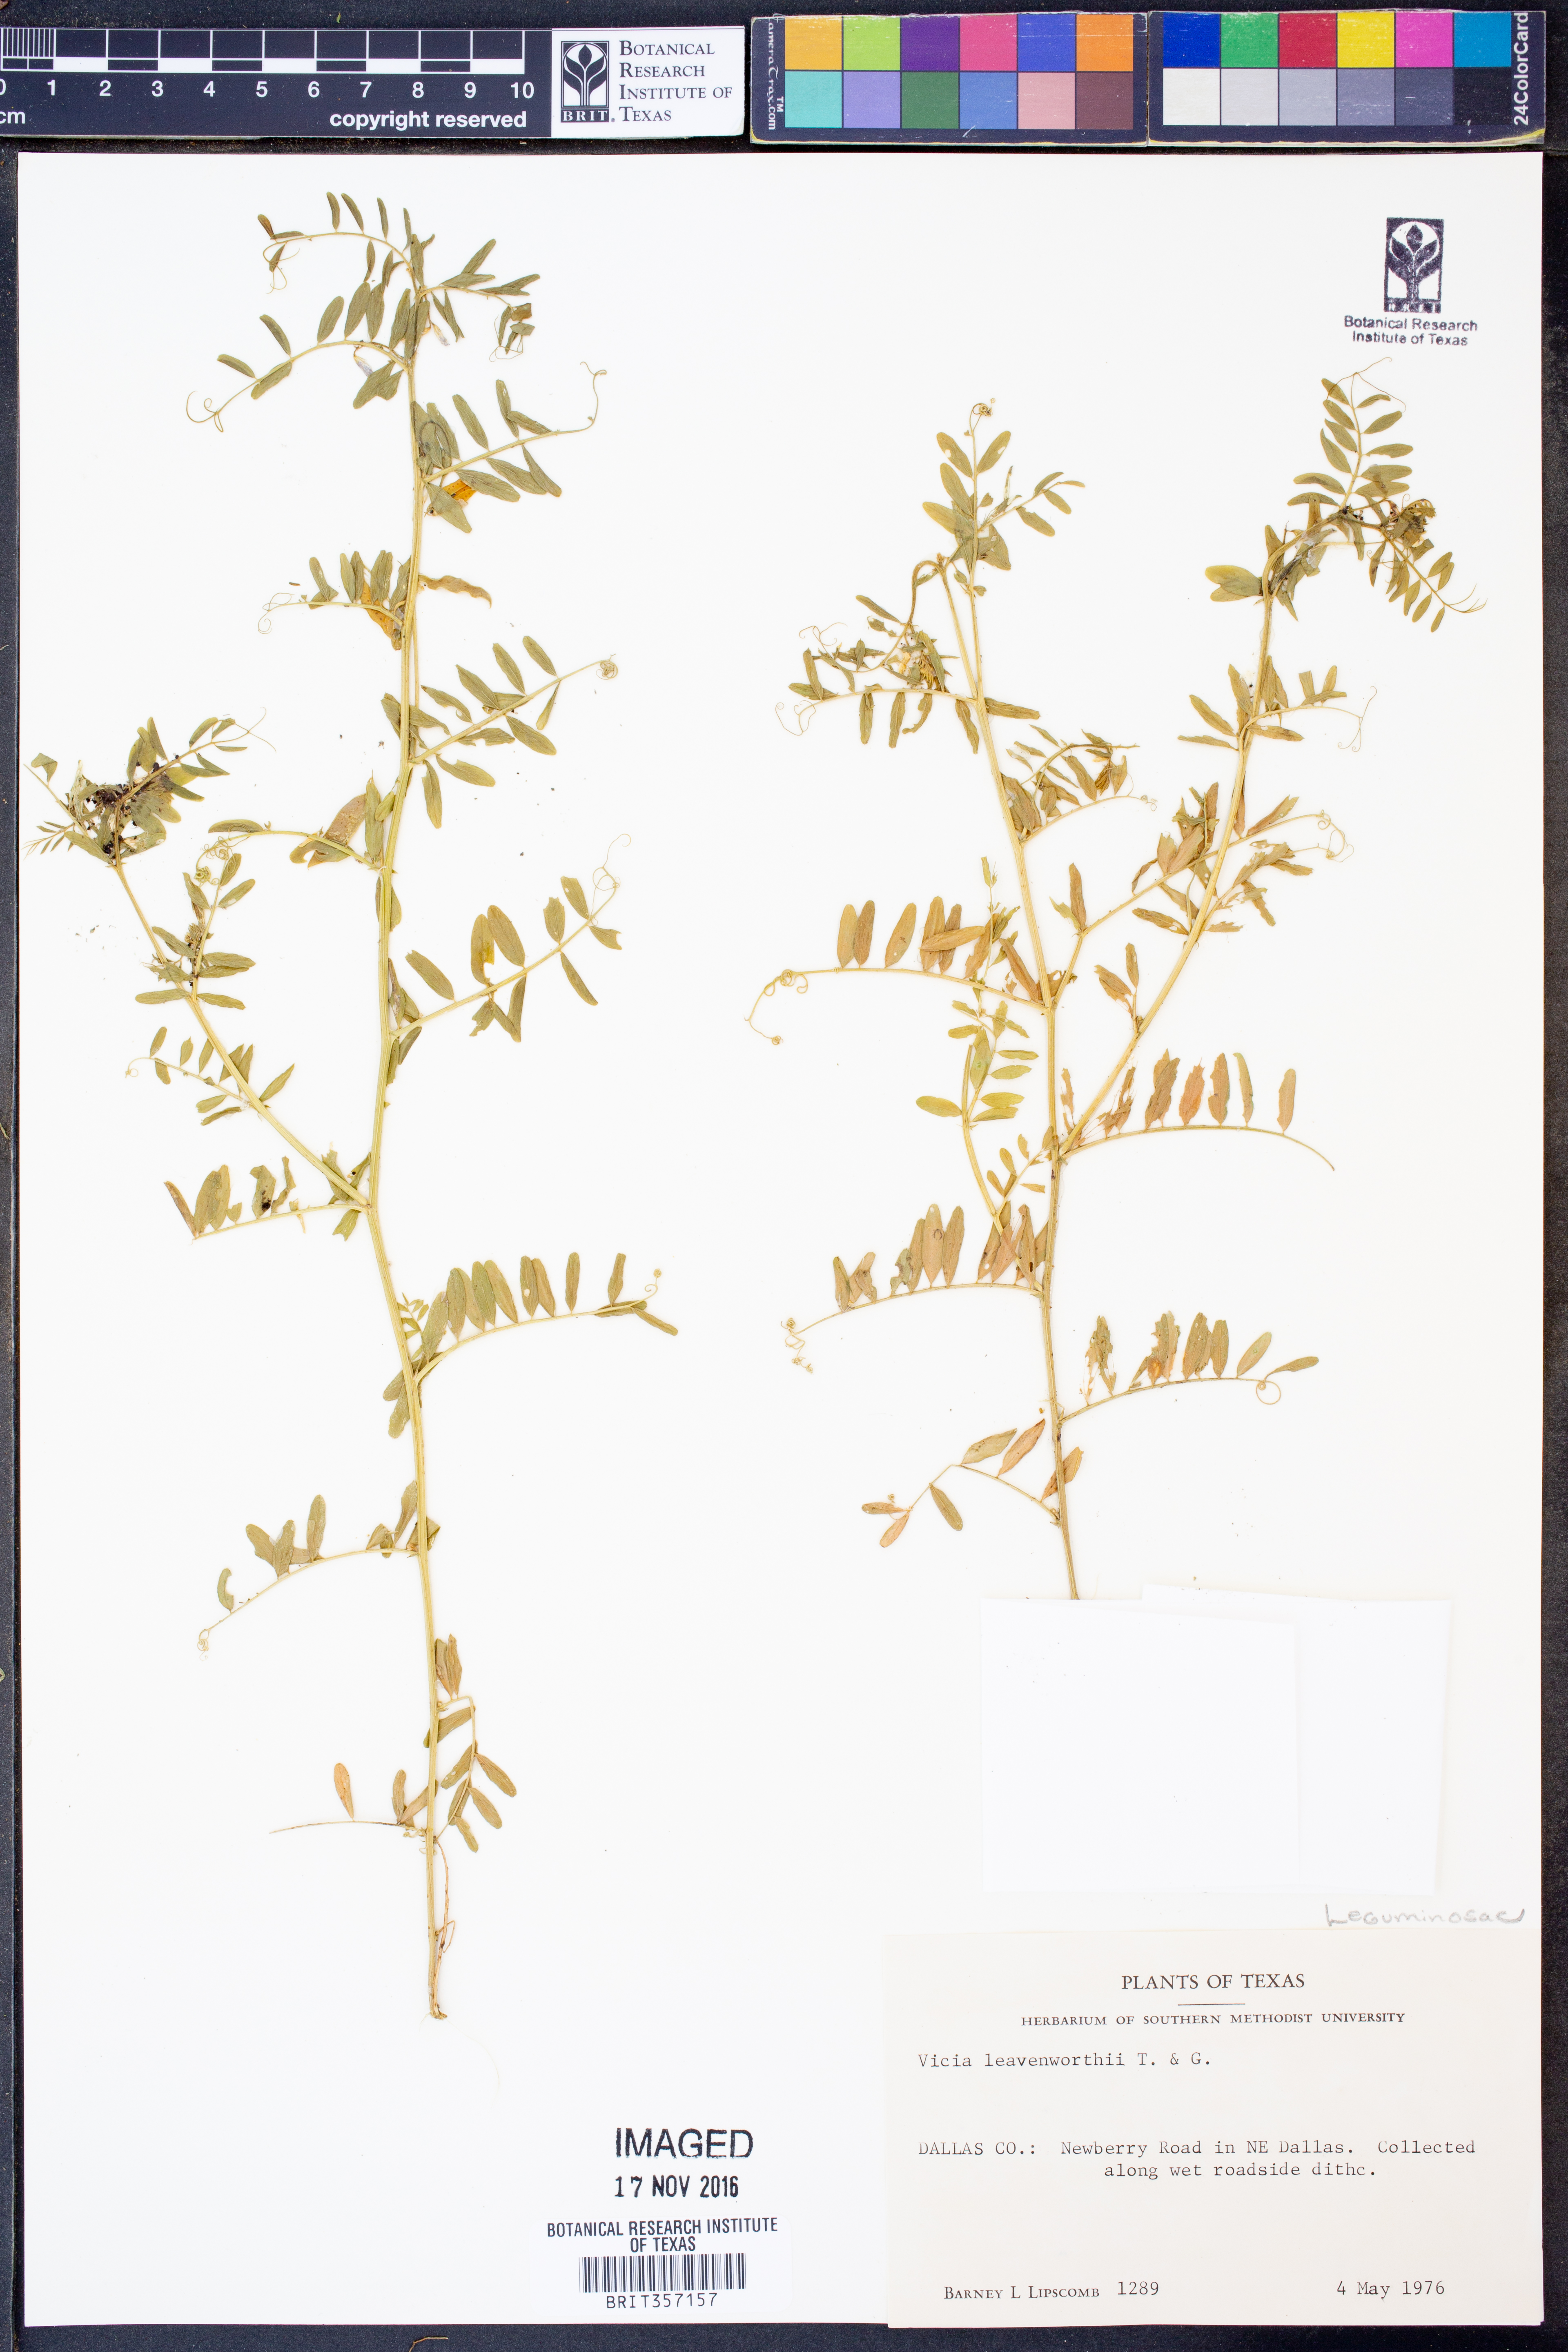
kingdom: Plantae
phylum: Tracheophyta
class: Magnoliopsida
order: Fabales
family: Fabaceae
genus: Vicia
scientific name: Vicia ludoviciana
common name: Louisiana vetch
